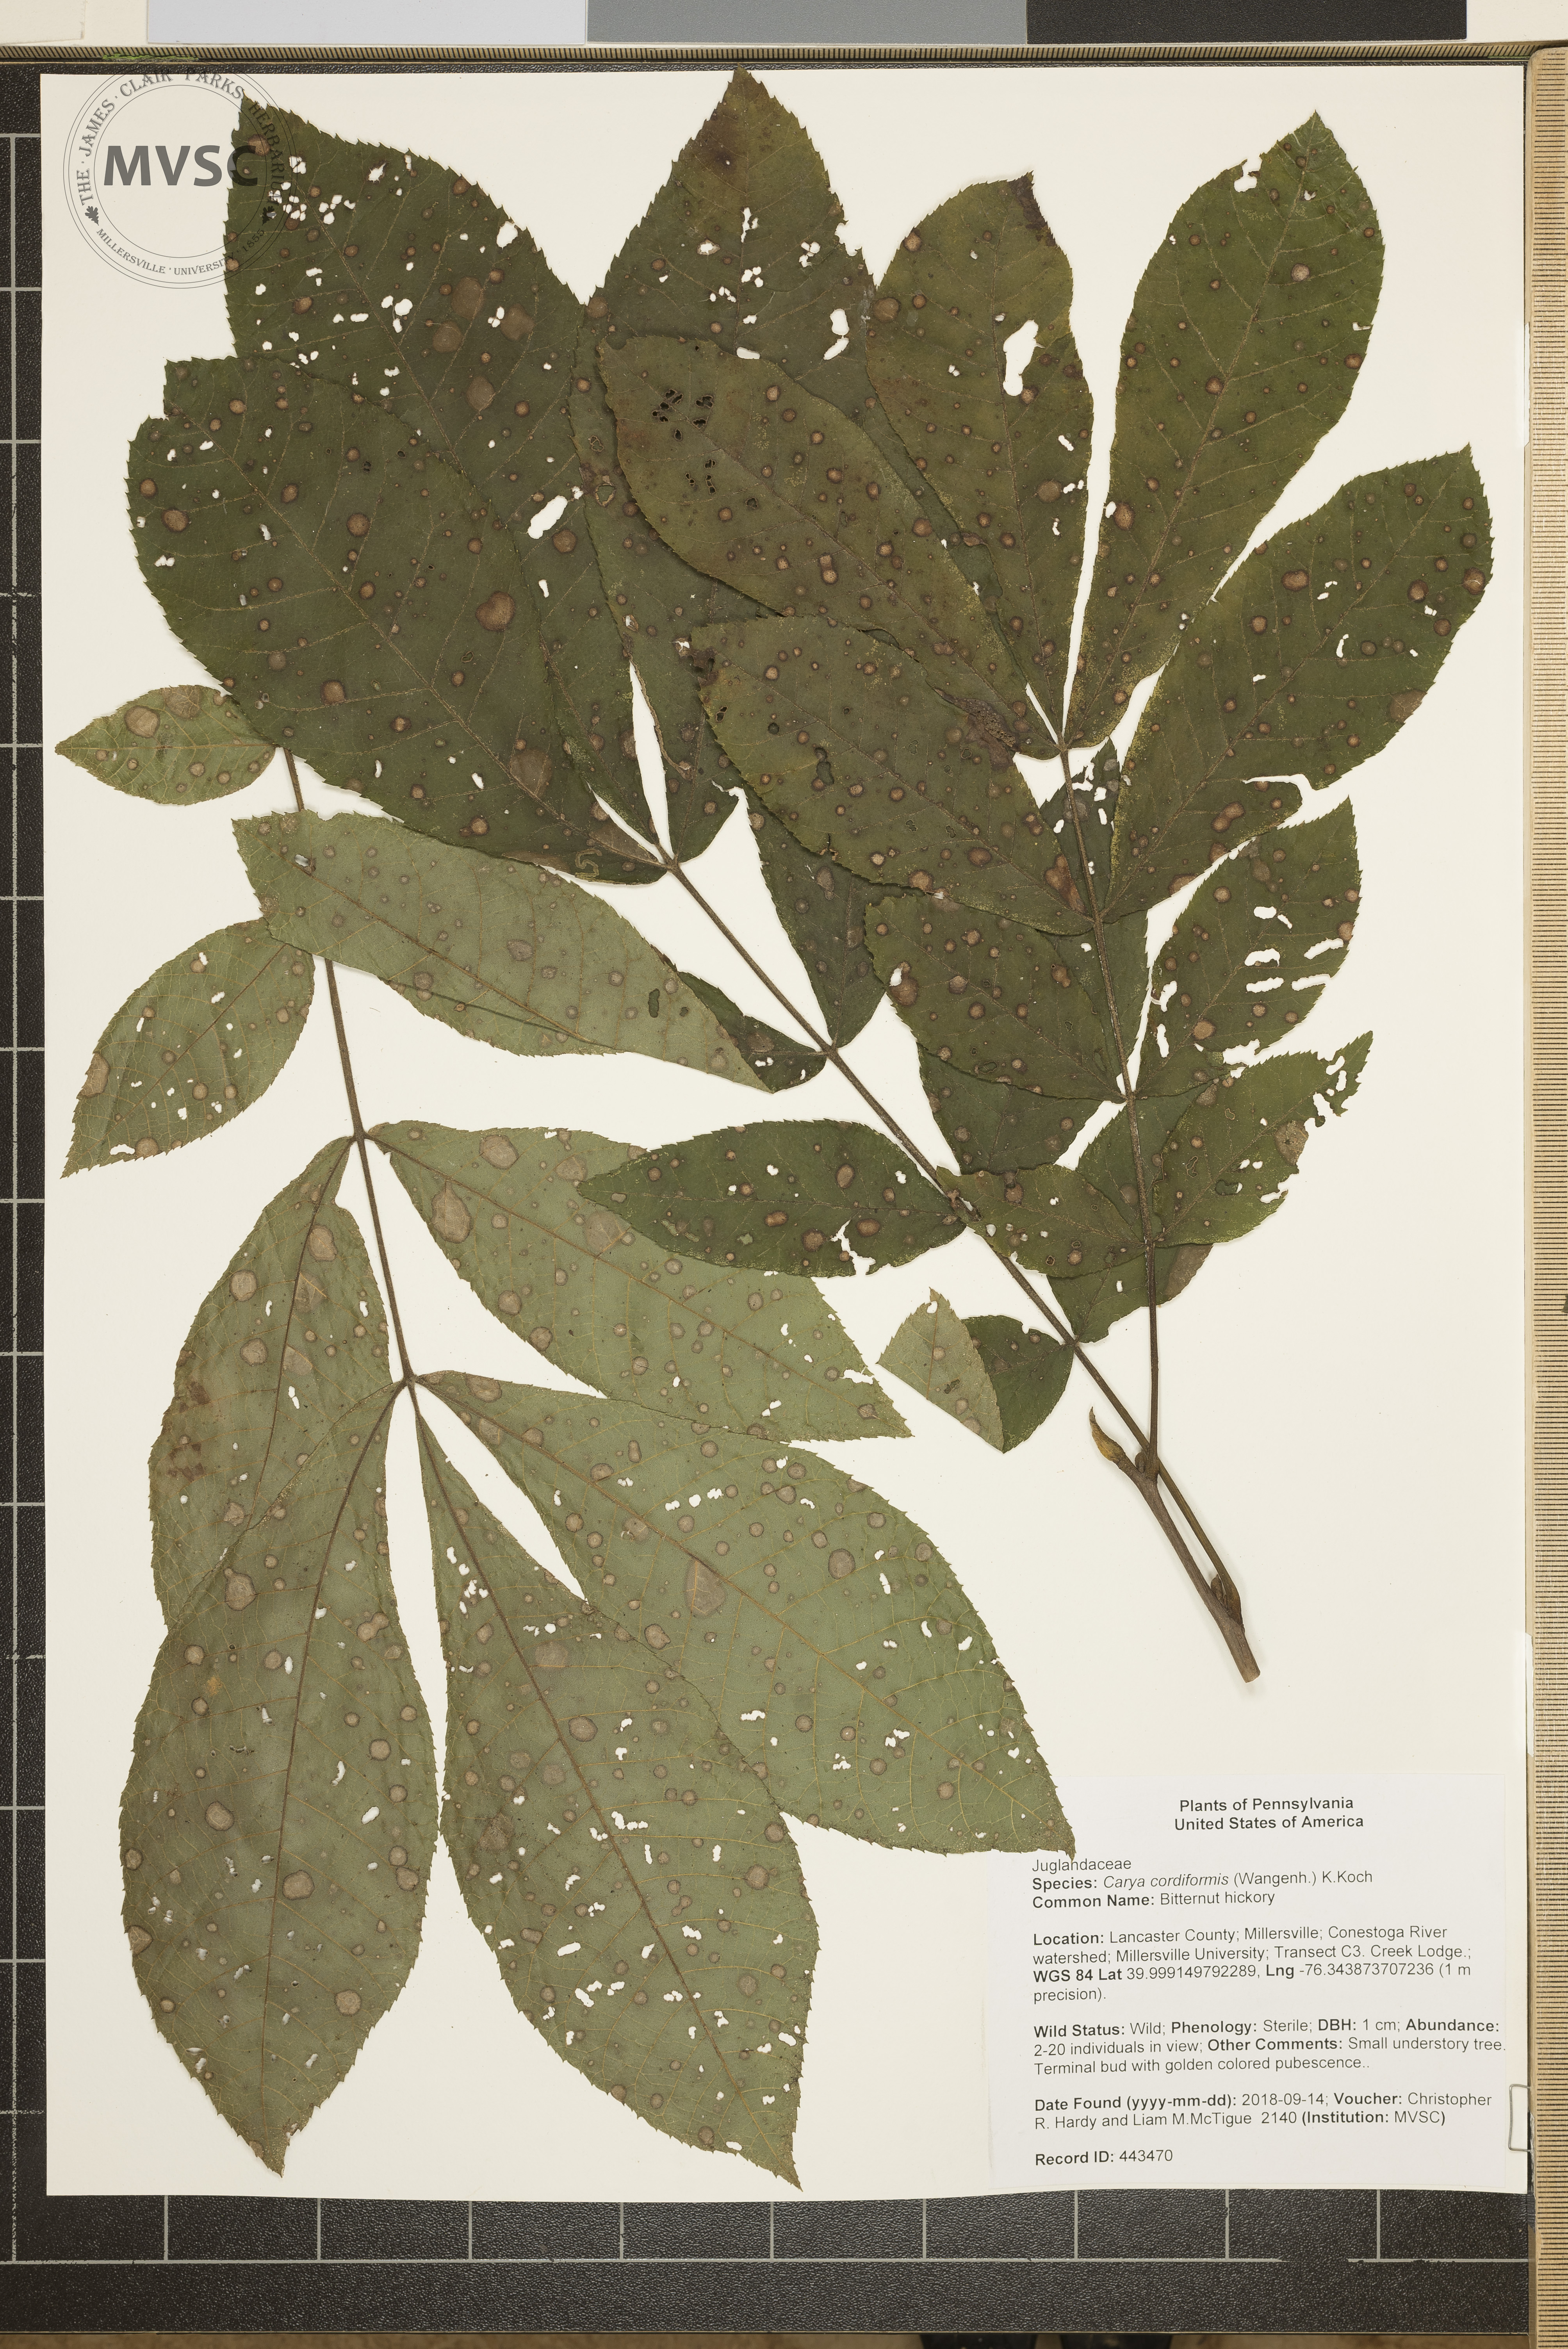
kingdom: Plantae
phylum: Tracheophyta
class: Magnoliopsida
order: Fagales
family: Juglandaceae
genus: Carya
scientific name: Carya cordiformis
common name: Bitternut hickory
